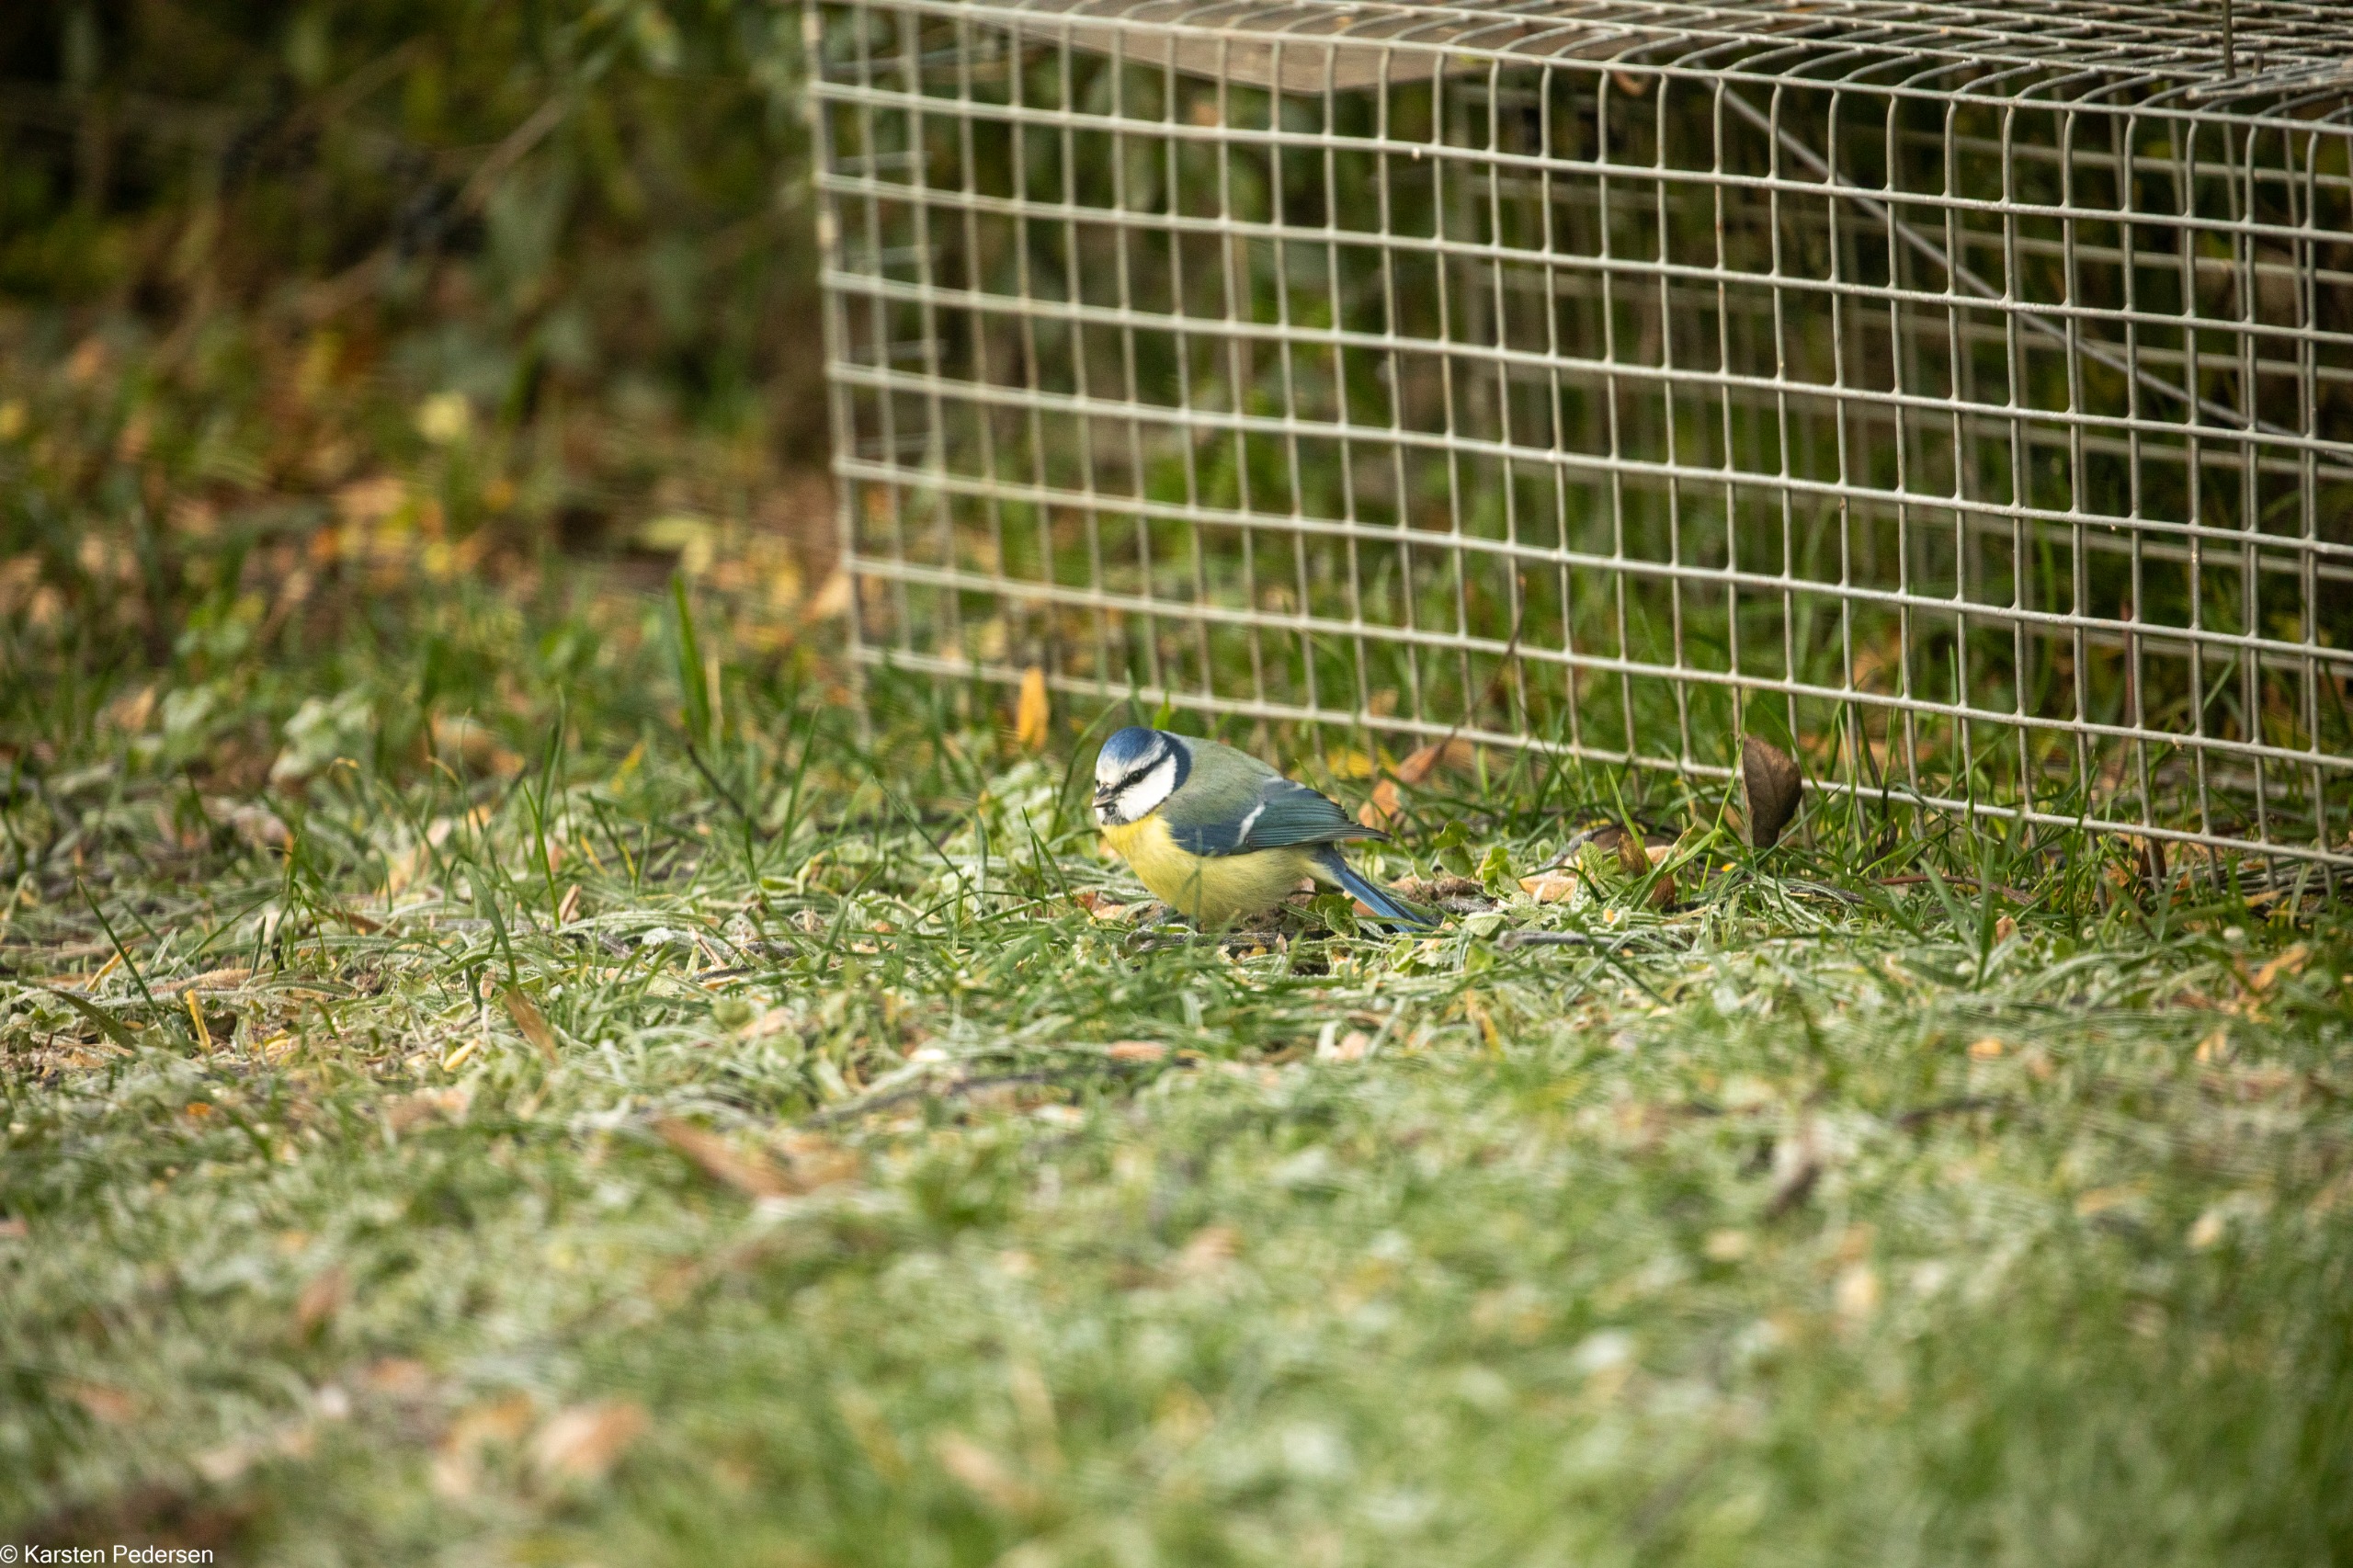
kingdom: Animalia
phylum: Chordata
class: Aves
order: Passeriformes
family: Paridae
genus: Cyanistes
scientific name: Cyanistes caeruleus
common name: Blåmejse
